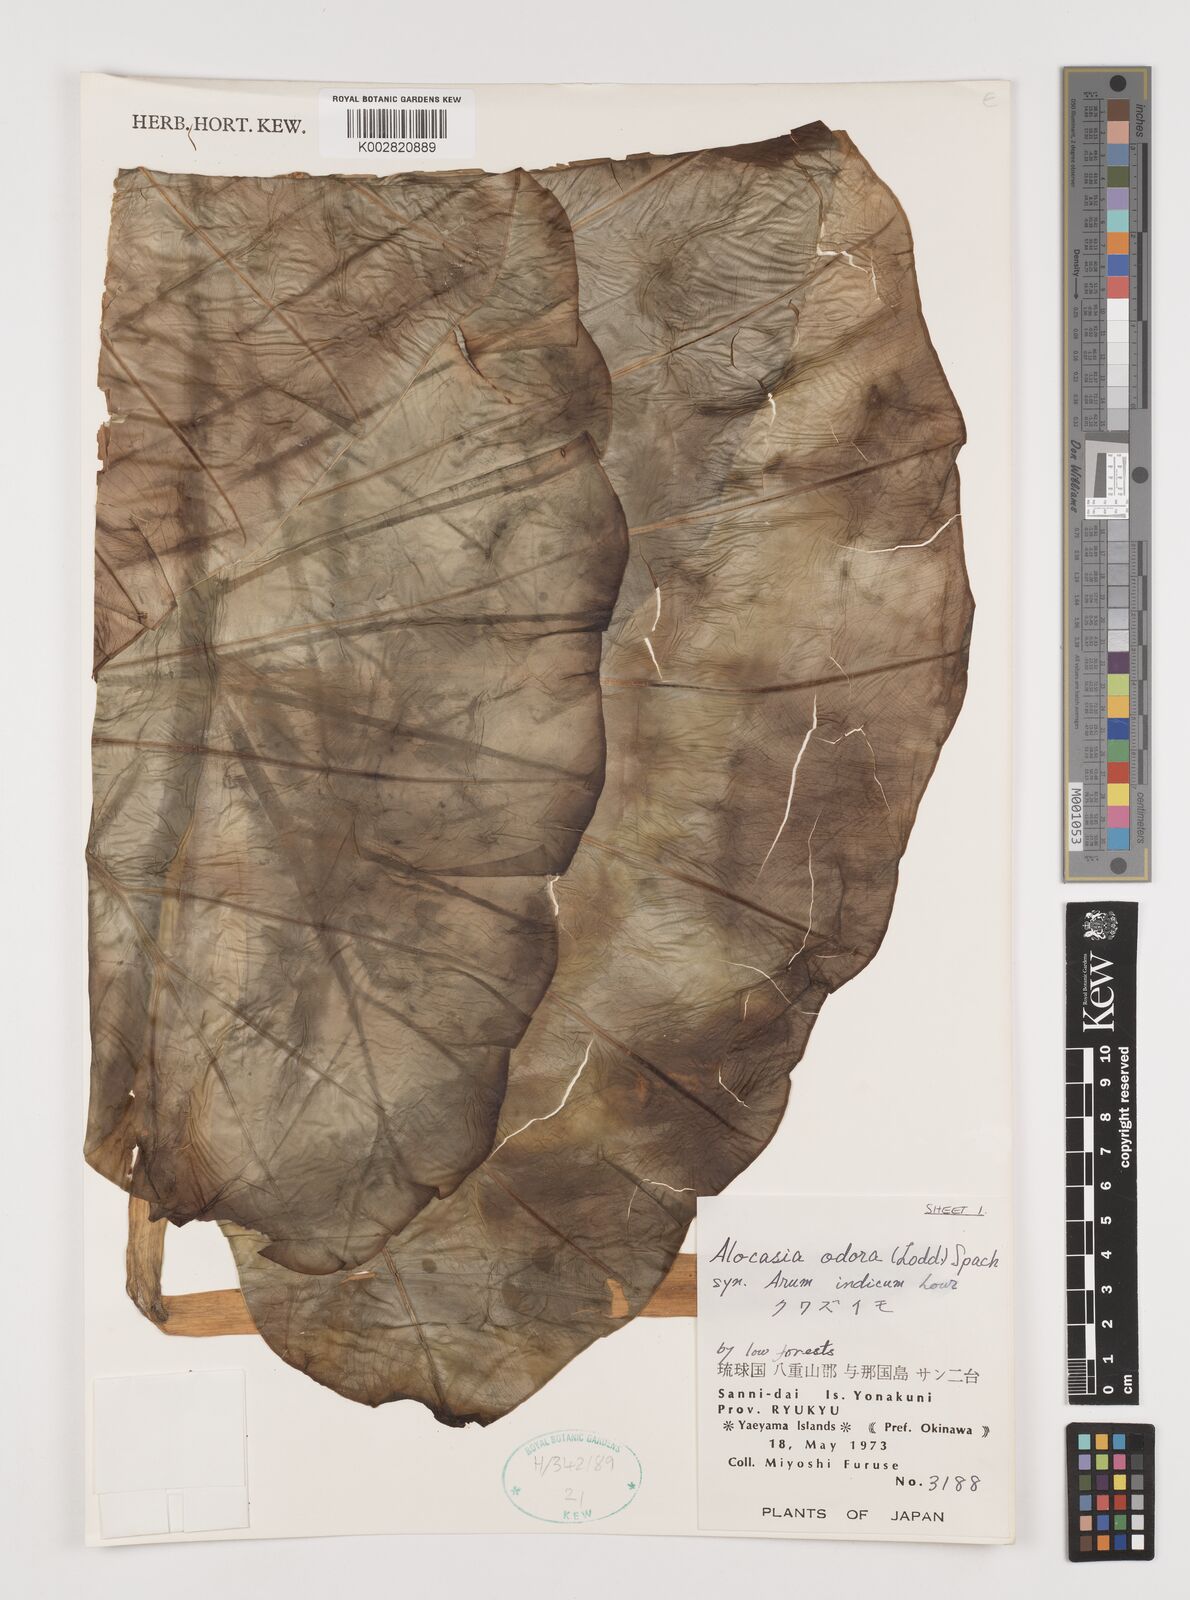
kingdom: Plantae
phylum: Tracheophyta
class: Liliopsida
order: Alismatales
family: Araceae
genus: Alocasia
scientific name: Alocasia
